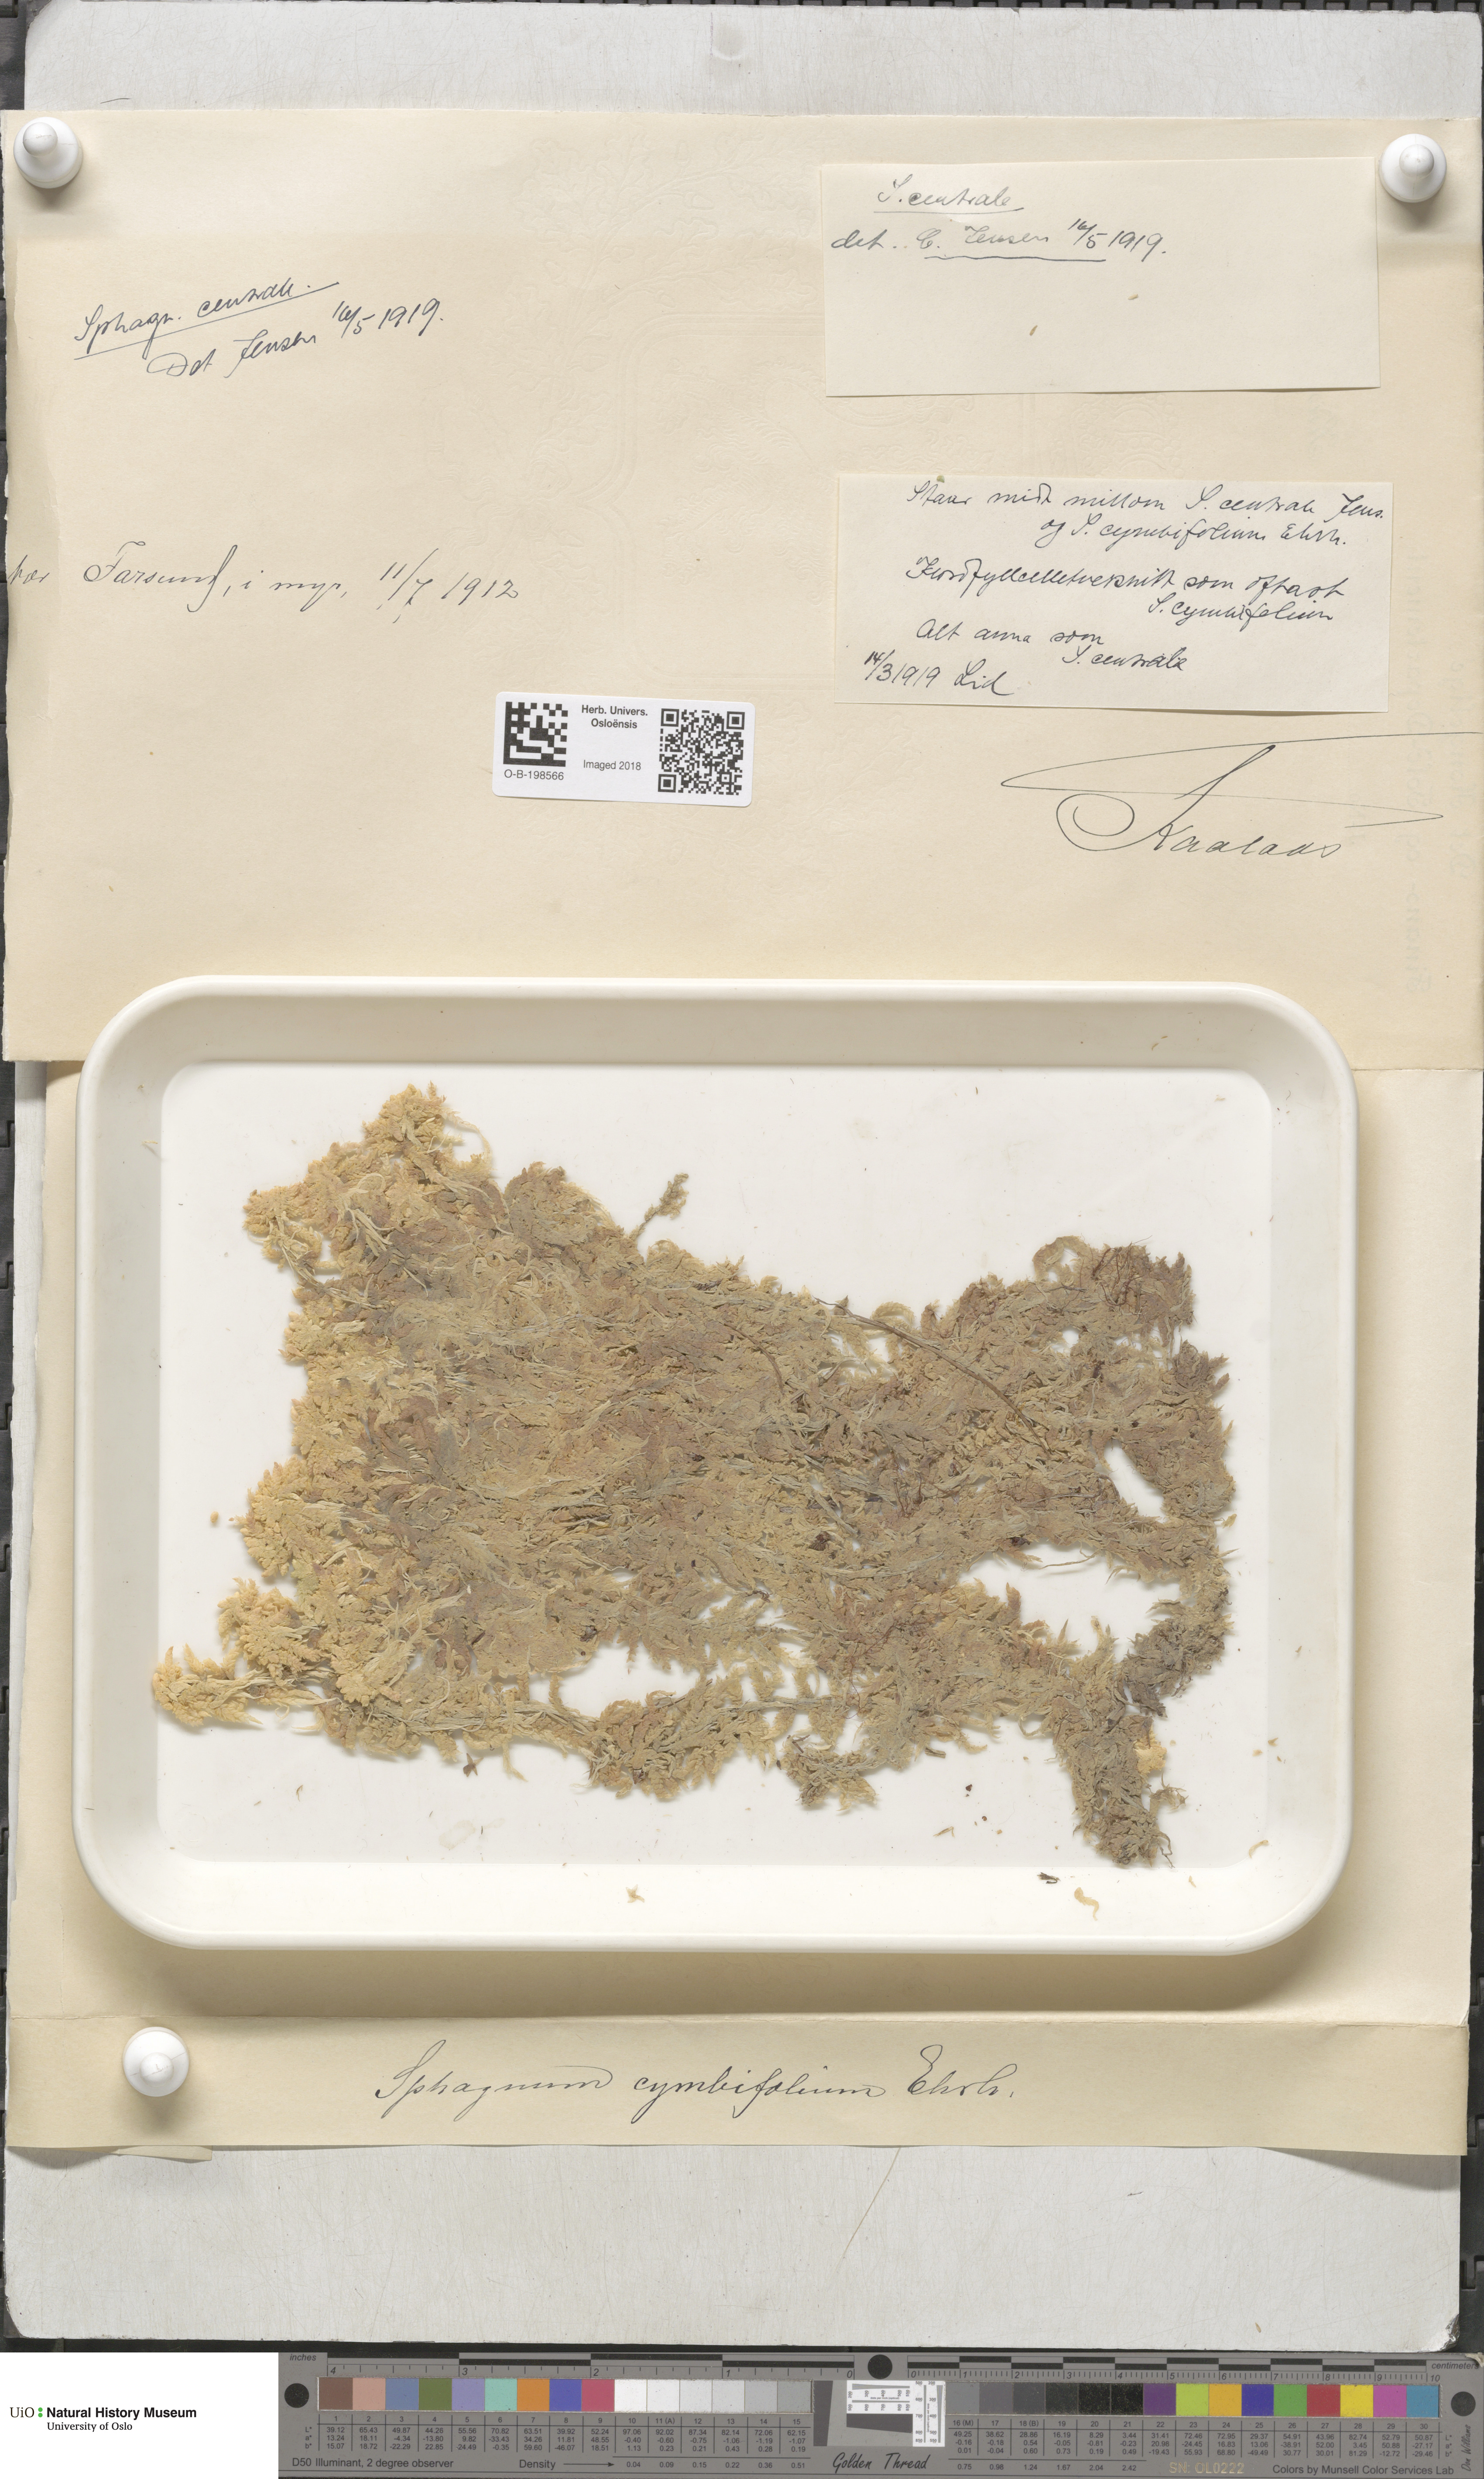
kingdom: Plantae
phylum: Bryophyta
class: Sphagnopsida
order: Sphagnales
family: Sphagnaceae
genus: Sphagnum
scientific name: Sphagnum centrale
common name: Central peat moss
